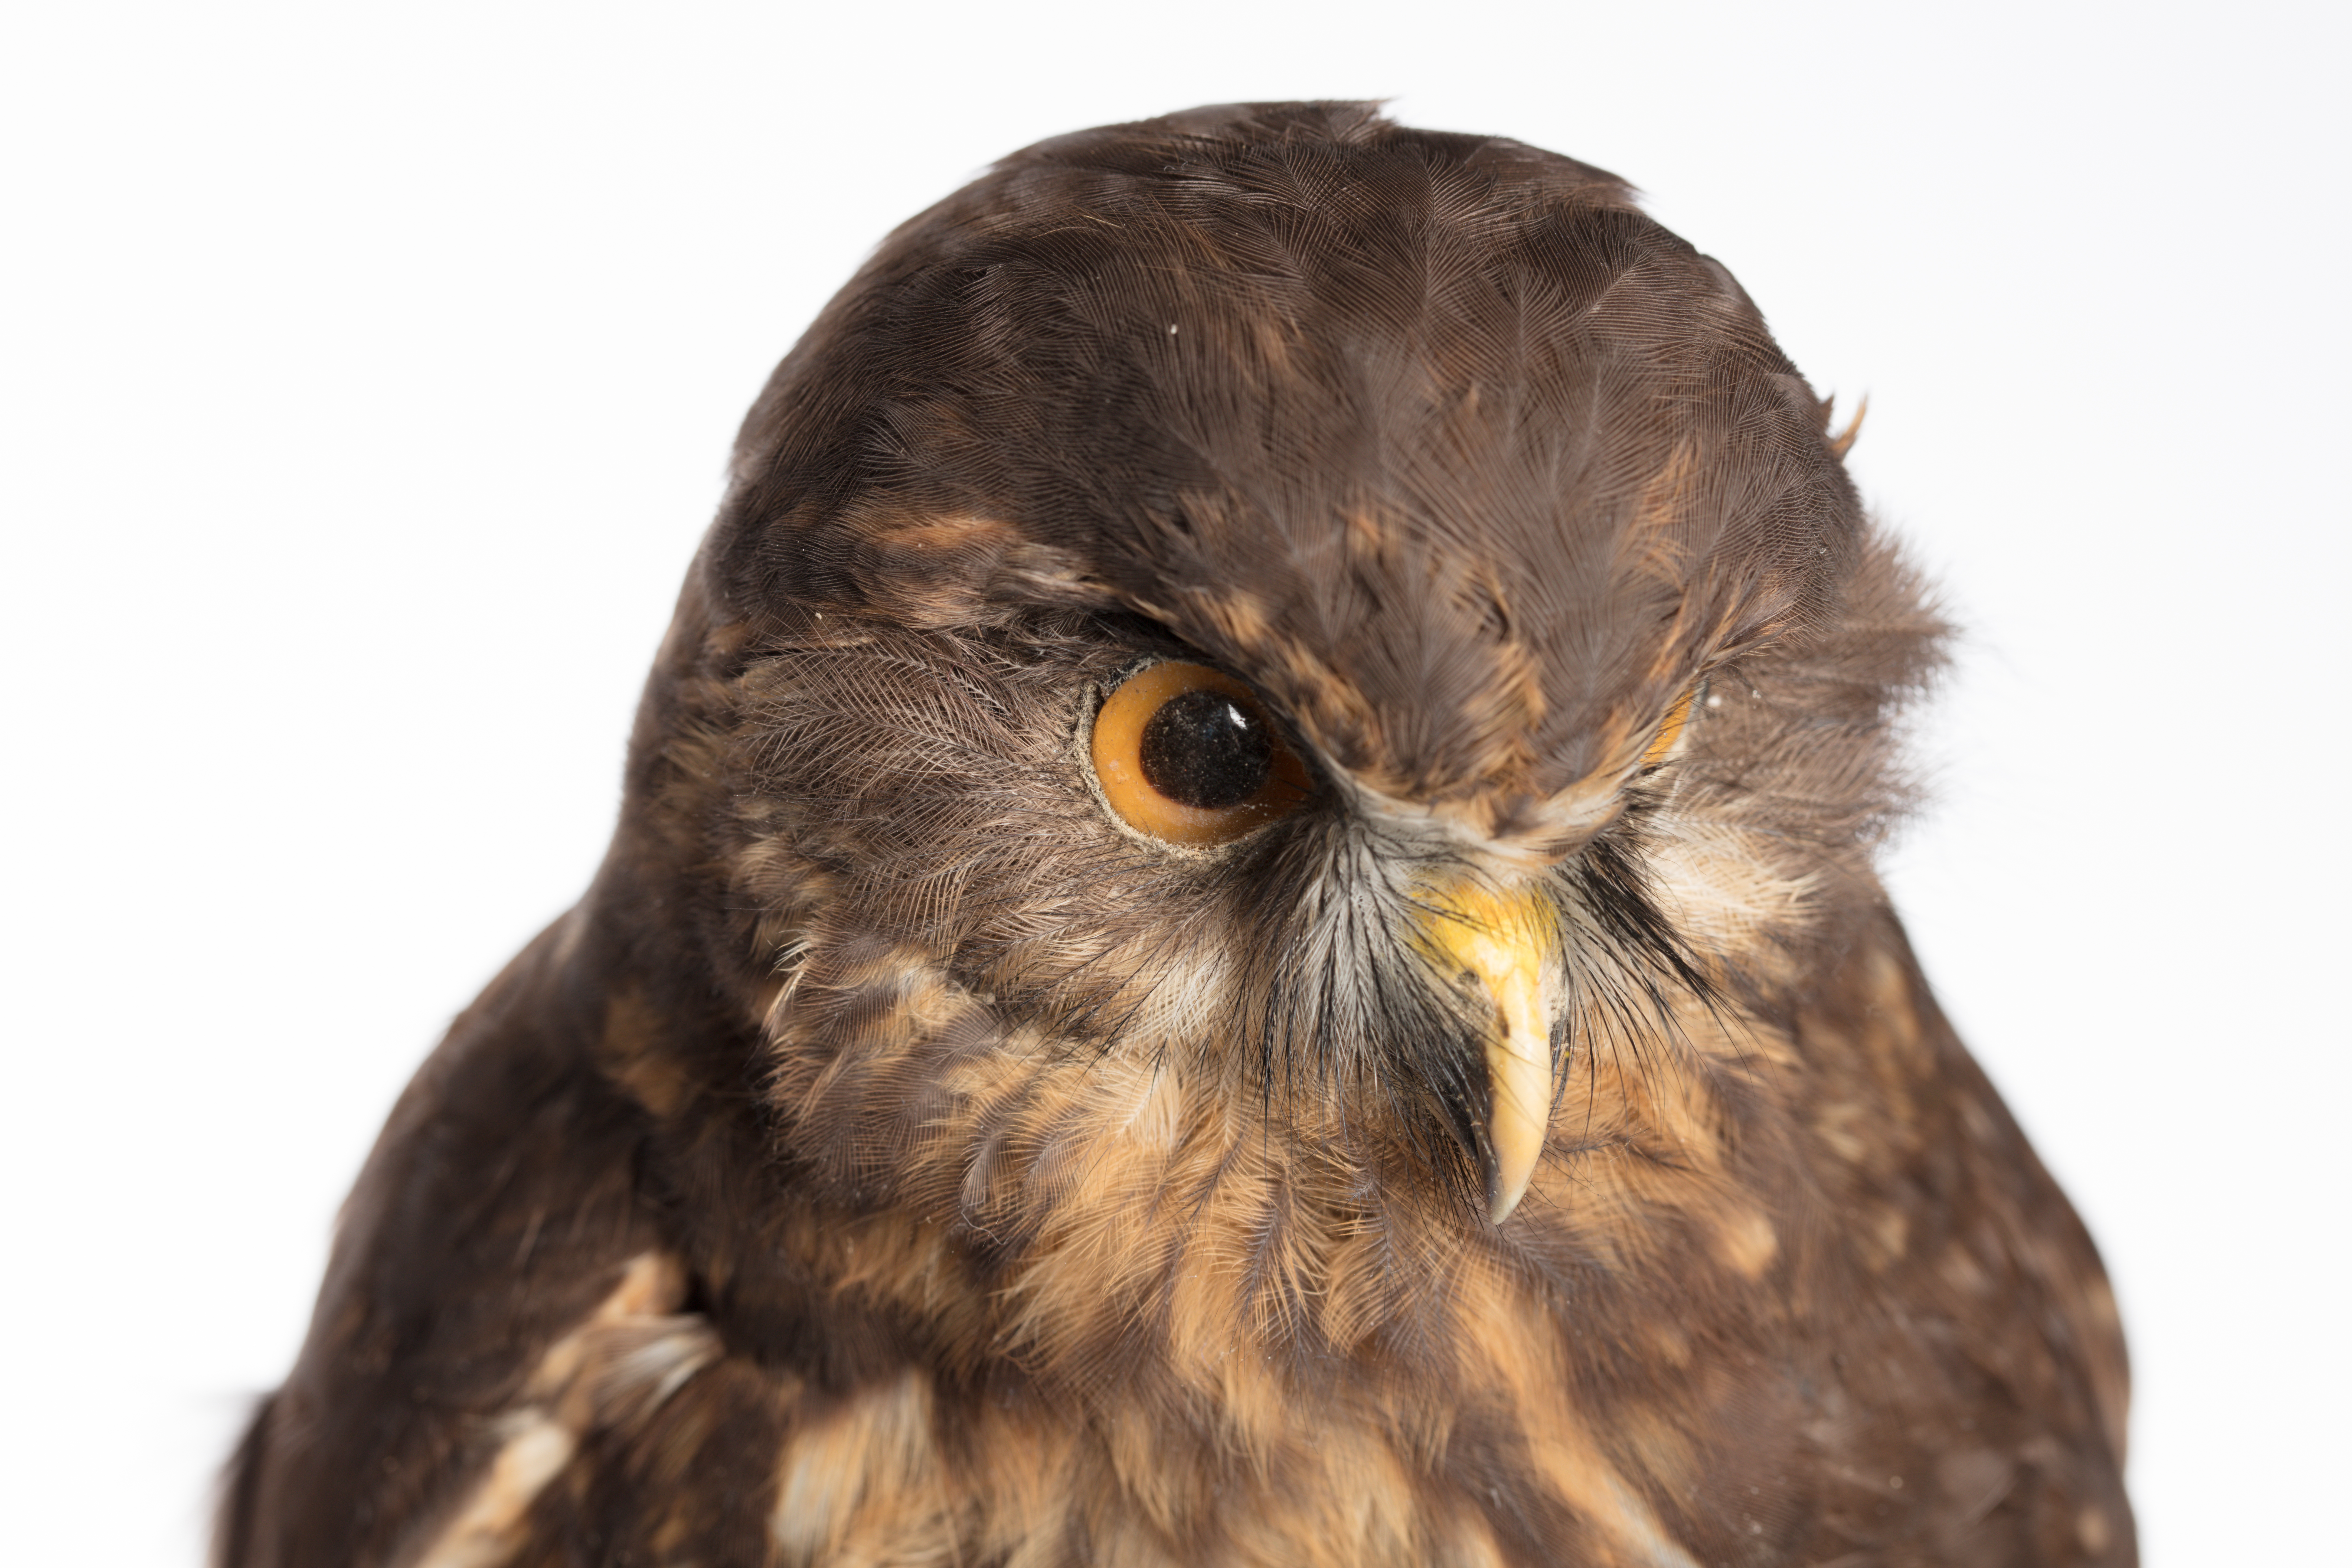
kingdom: Animalia
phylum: Chordata
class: Aves
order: Strigiformes
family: Strigidae
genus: Ninox
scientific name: Ninox novaeseelandiae
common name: Morepork
